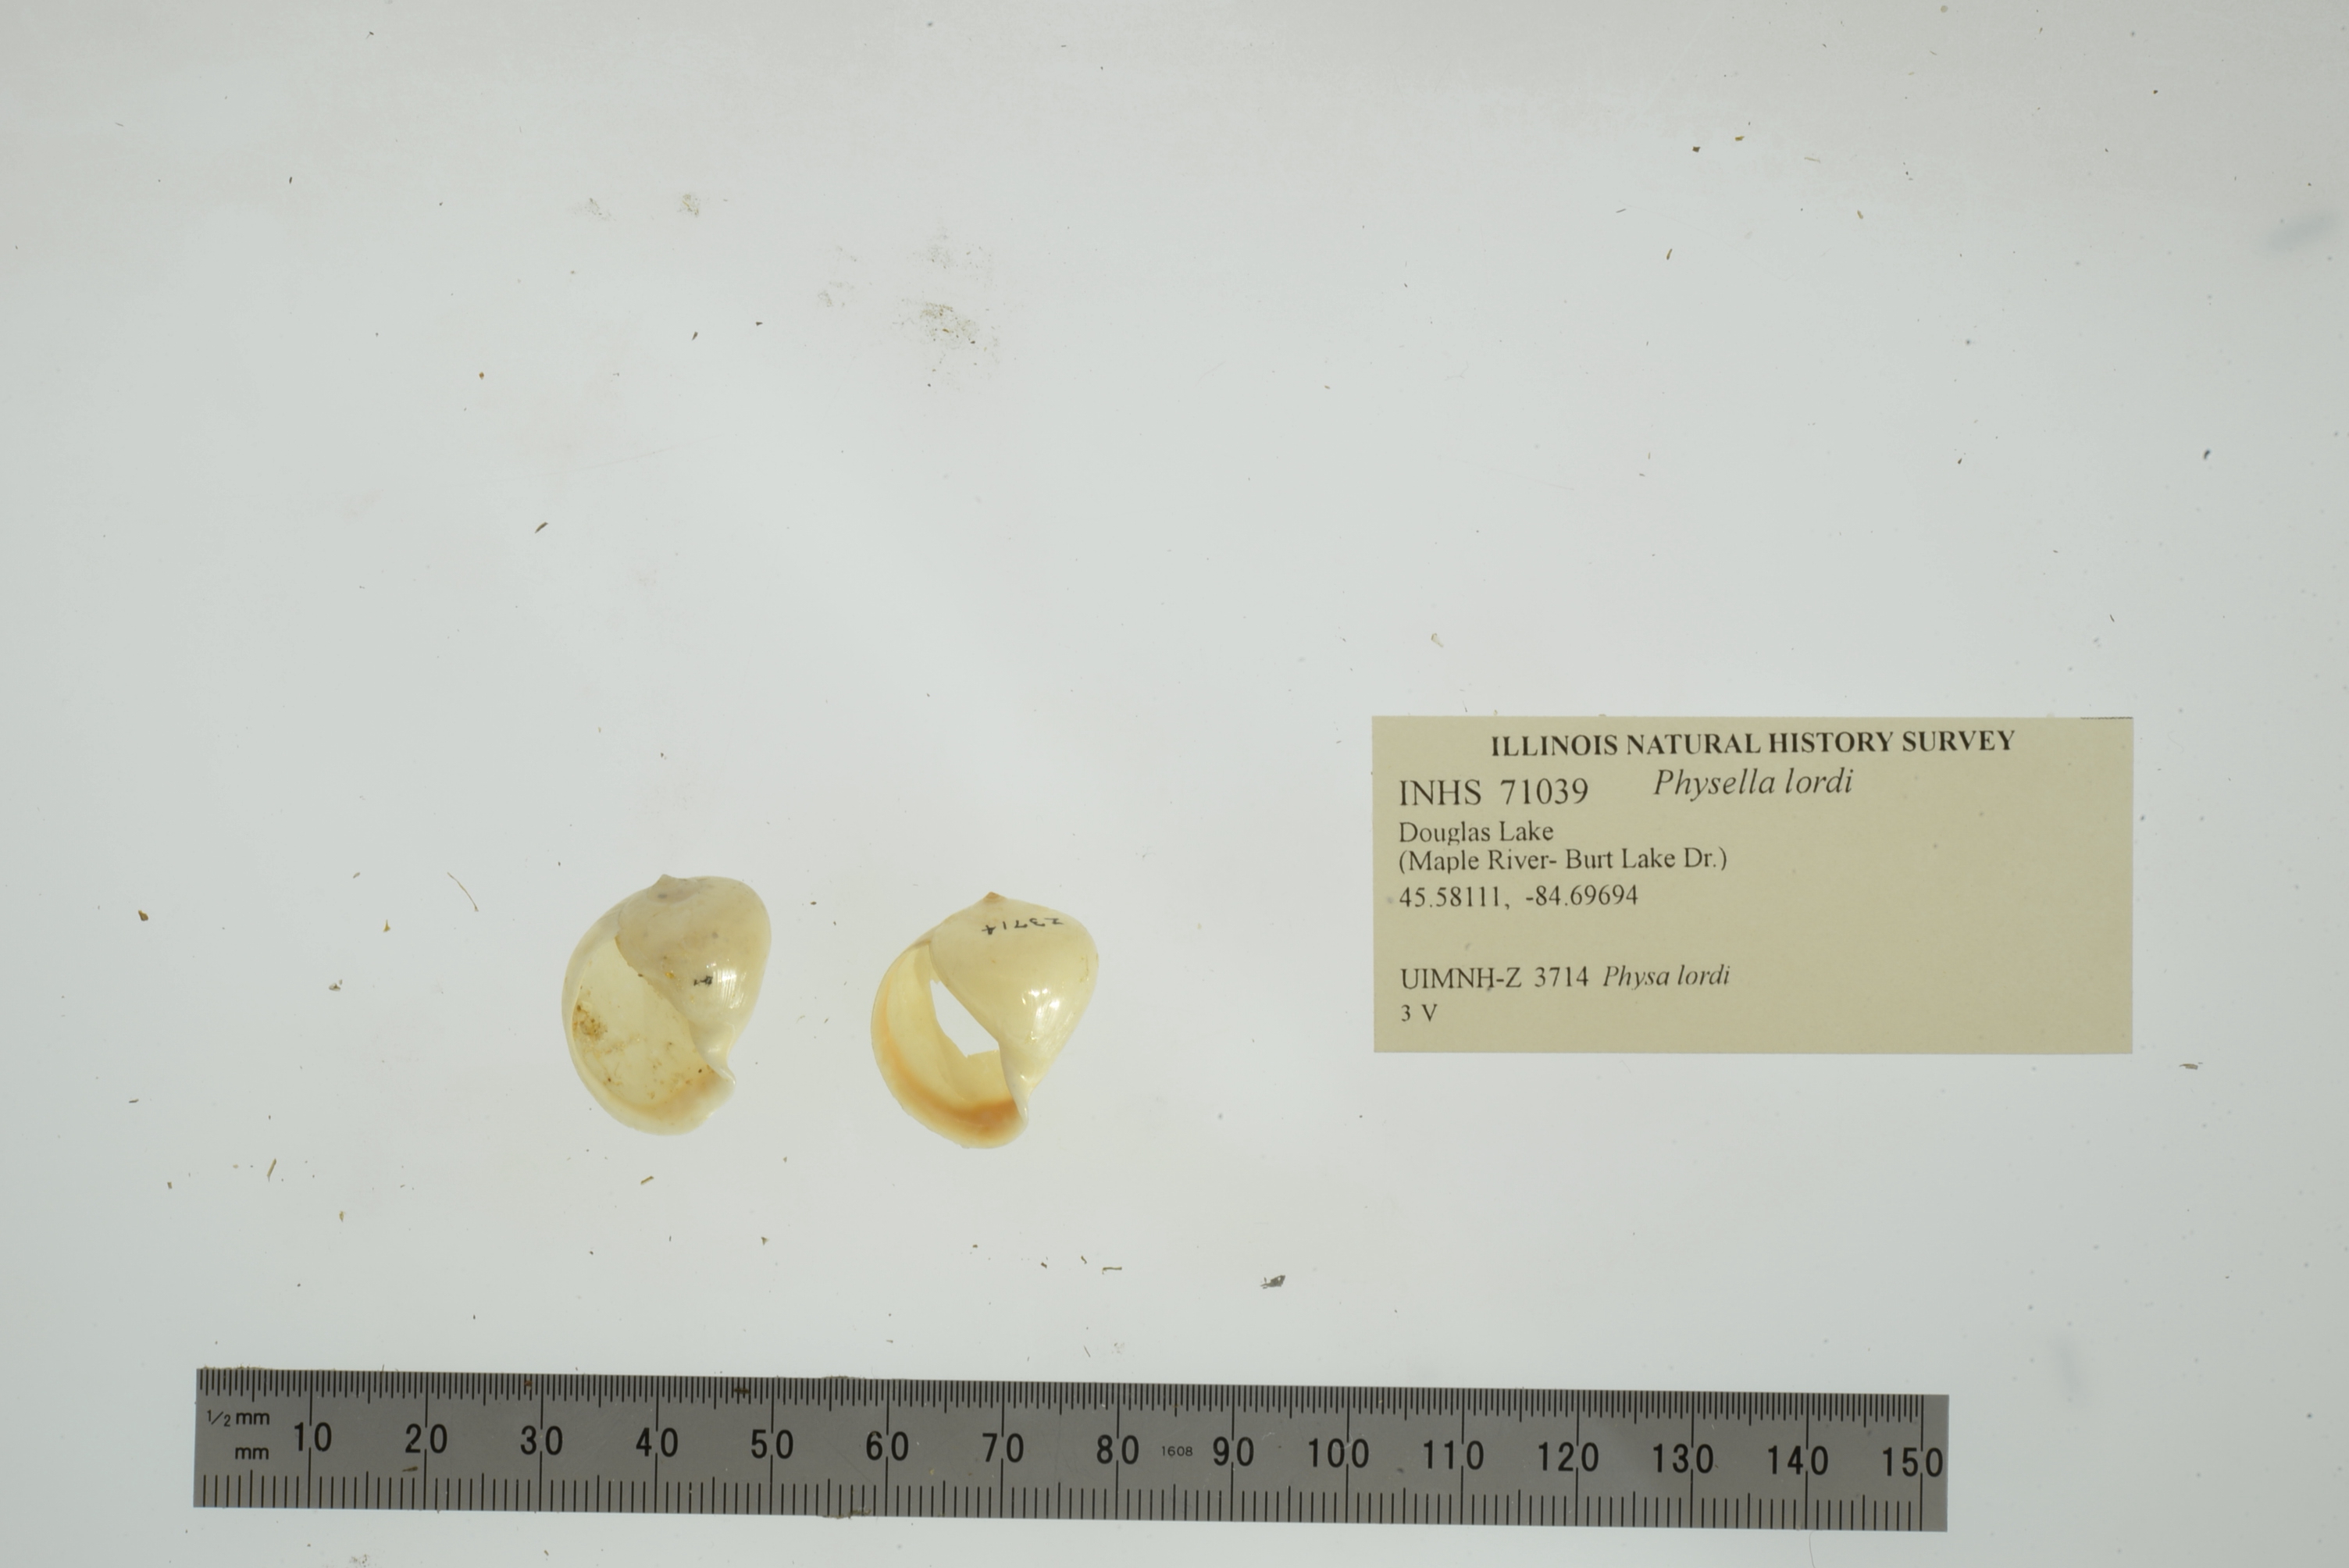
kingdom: Animalia
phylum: Mollusca
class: Gastropoda
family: Physidae
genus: Physella
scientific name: Physella lordi
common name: Twisted physa
